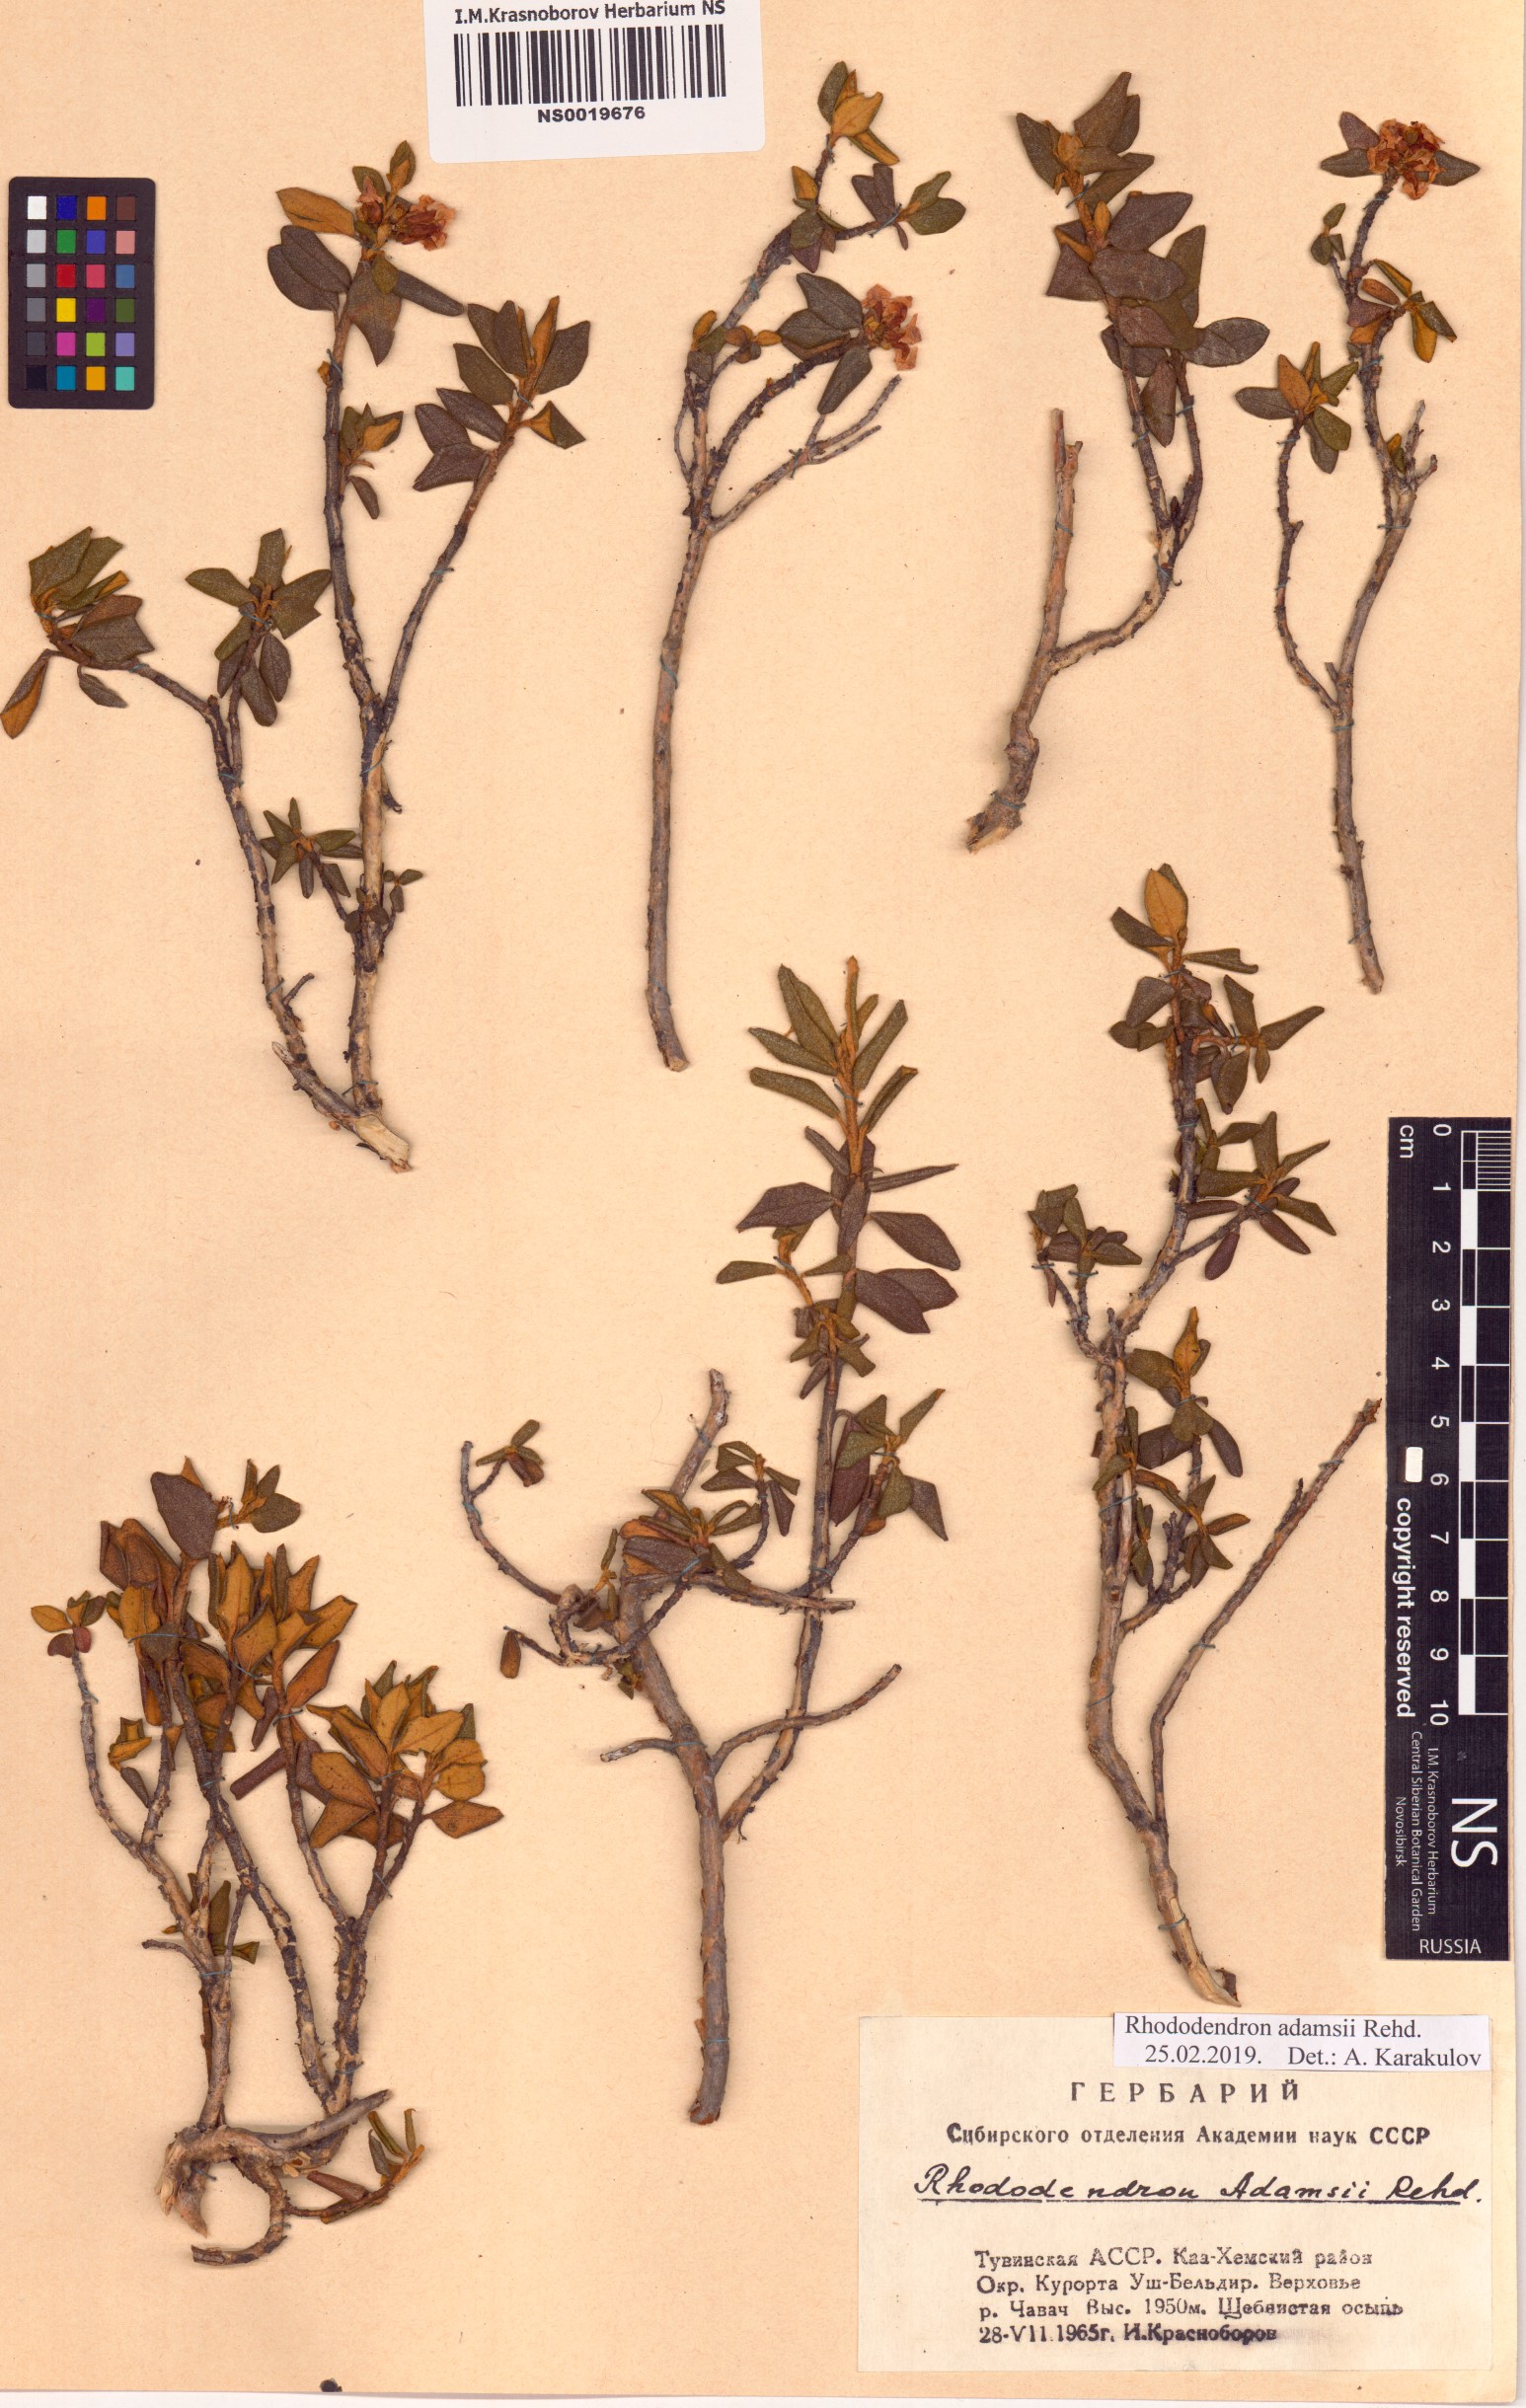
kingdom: Plantae
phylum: Tracheophyta
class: Magnoliopsida
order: Ericales
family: Ericaceae
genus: Rhododendron
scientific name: Rhododendron adamsii
